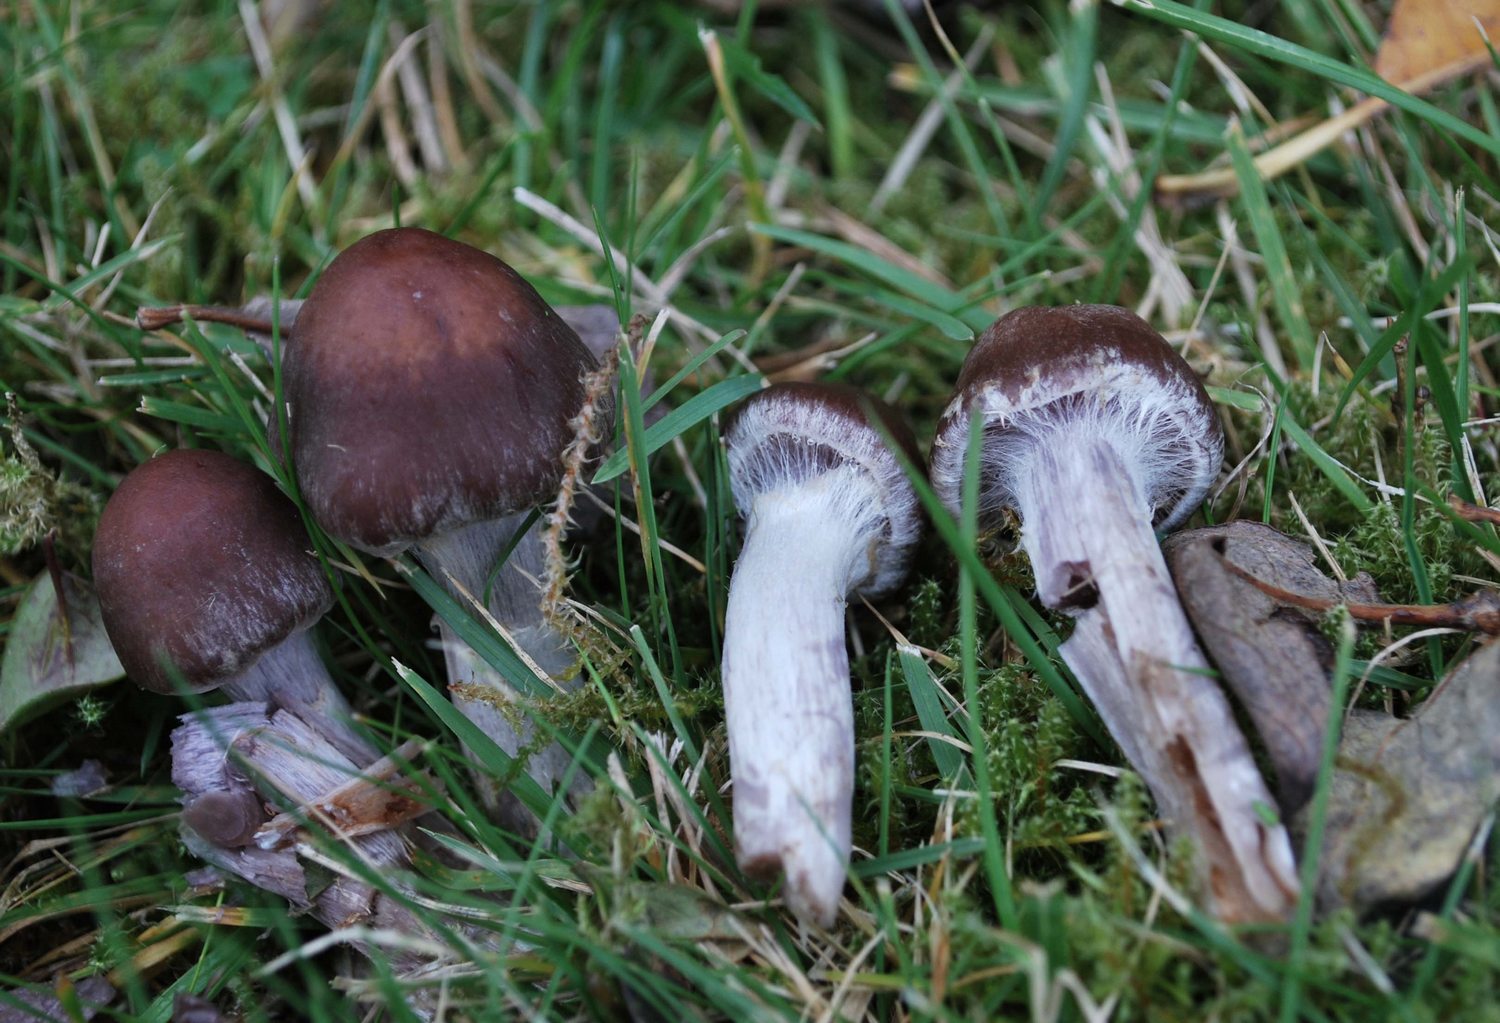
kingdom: Fungi
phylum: Basidiomycota
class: Agaricomycetes
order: Agaricales
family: Cortinariaceae
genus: Cortinarius
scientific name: Cortinarius saturninus
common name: brunviolet slørhat
